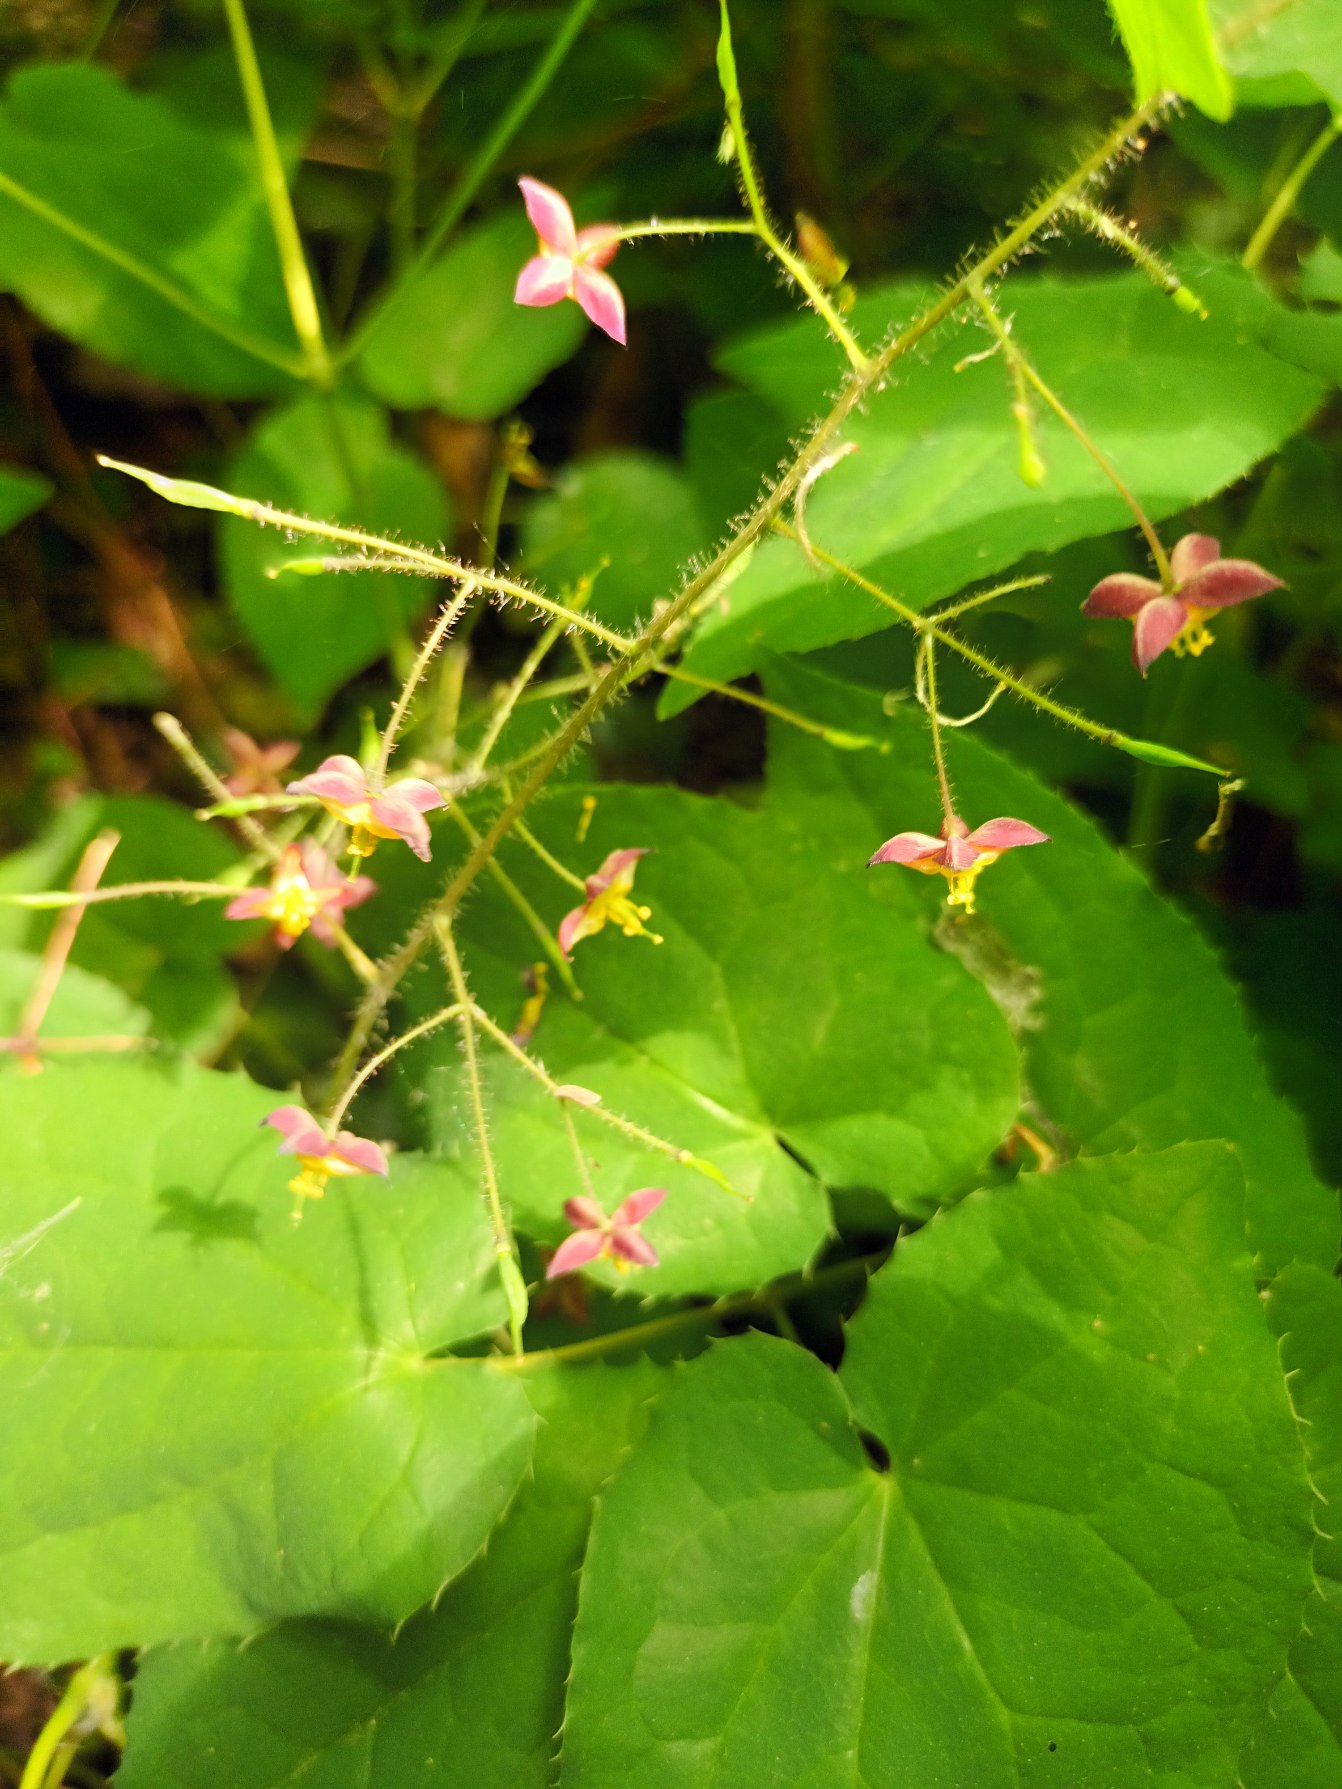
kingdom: Plantae
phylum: Tracheophyta
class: Magnoliopsida
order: Ranunculales
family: Berberidaceae
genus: Epimedium
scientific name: Epimedium alpinum
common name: Alpe-bispehue
